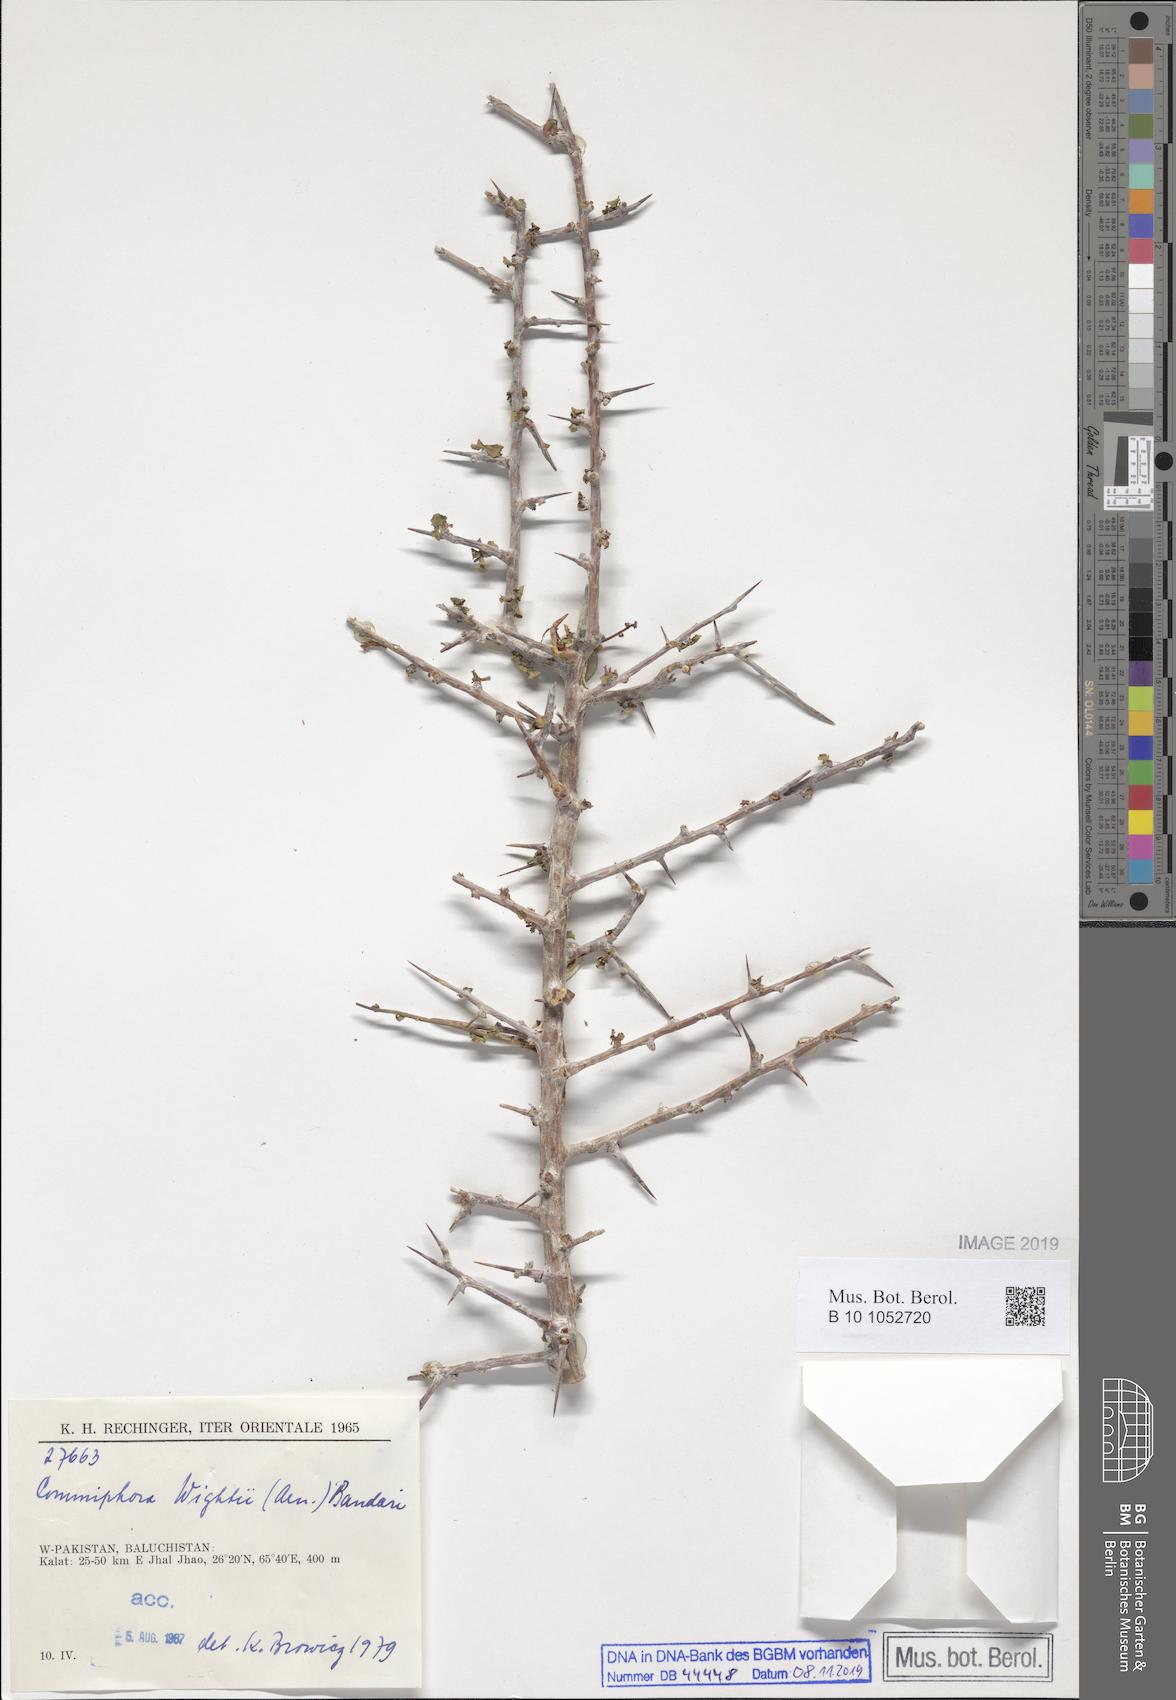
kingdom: Plantae
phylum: Tracheophyta
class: Magnoliopsida
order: Sapindales
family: Burseraceae
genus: Commiphora
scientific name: Commiphora wightii
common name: Indian bdellium-tree
